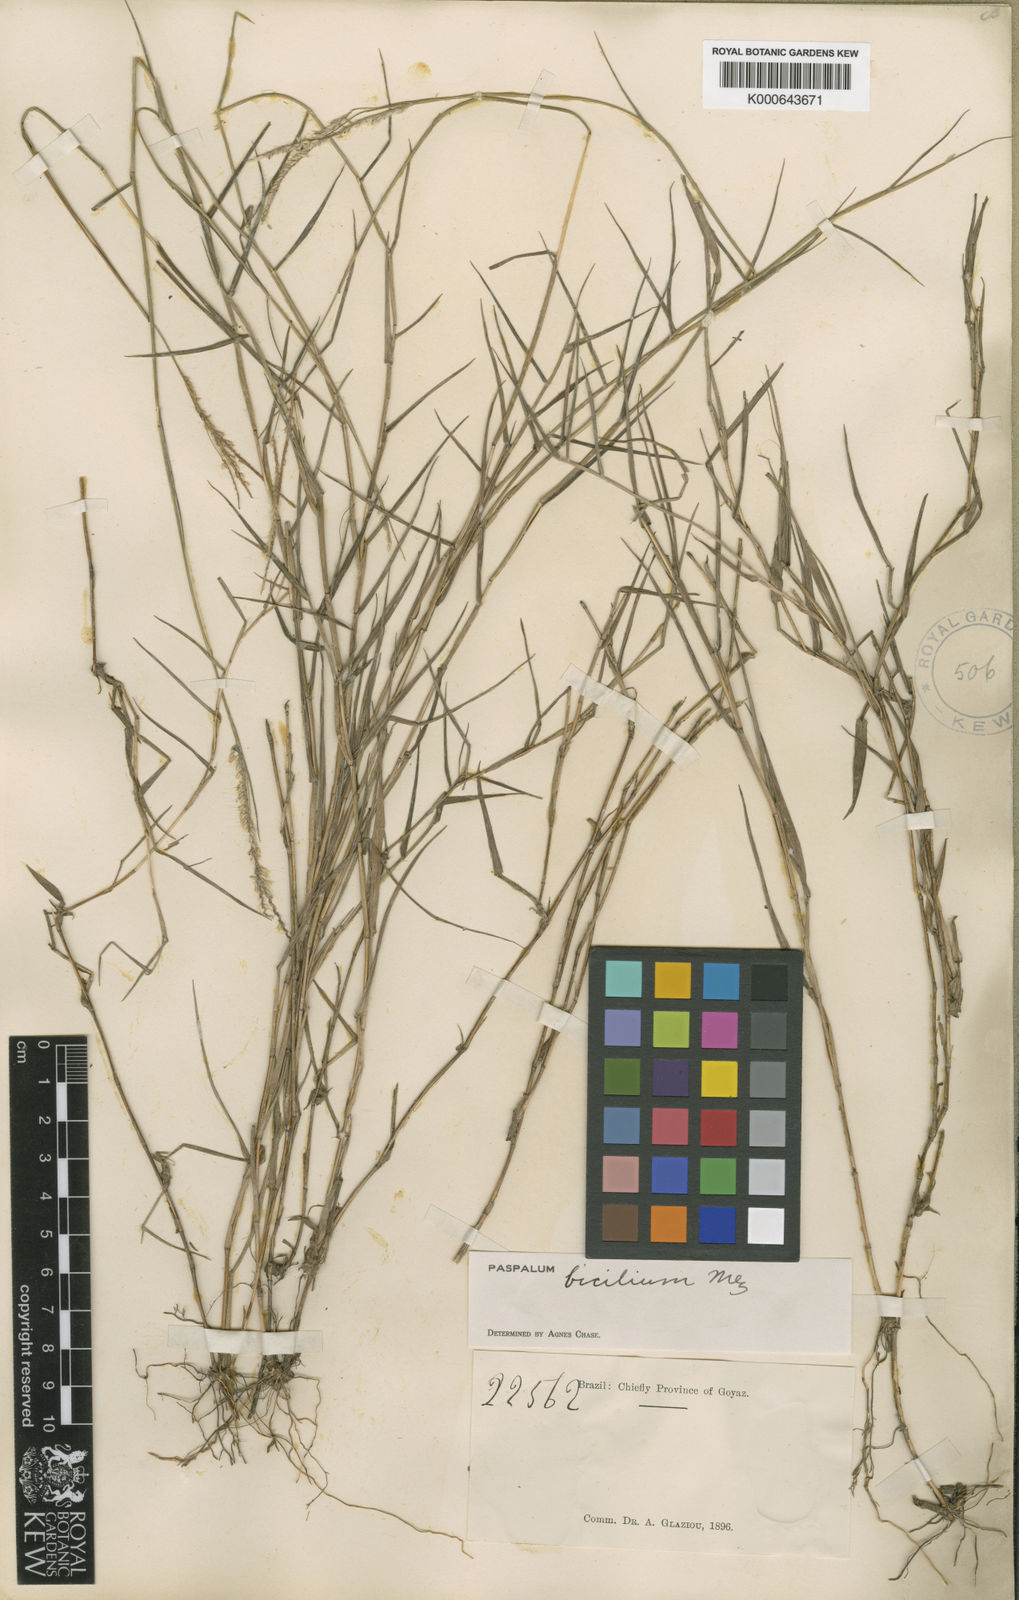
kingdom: Plantae
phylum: Tracheophyta
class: Liliopsida
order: Poales
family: Poaceae
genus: Paspalum
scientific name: Paspalum polyphyllum
